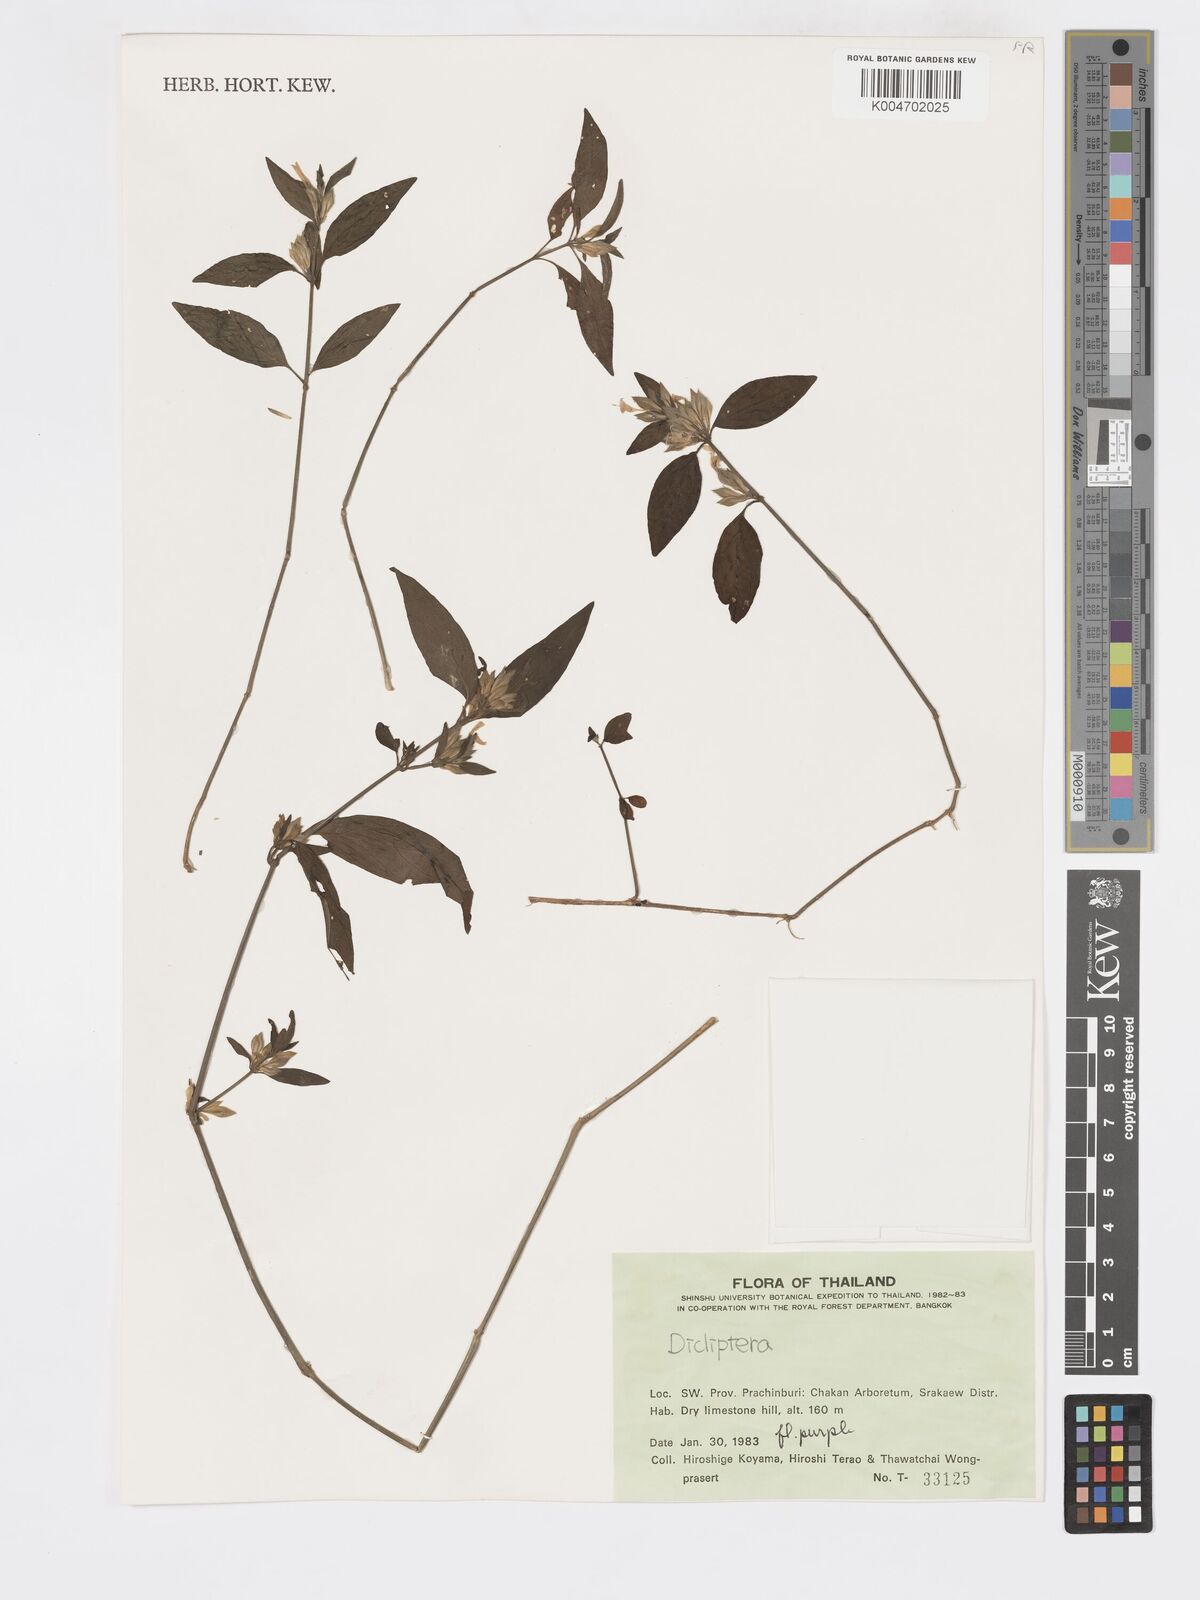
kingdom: Plantae
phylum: Tracheophyta
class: Magnoliopsida
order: Lamiales
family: Acanthaceae
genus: Dicliptera
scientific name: Dicliptera
